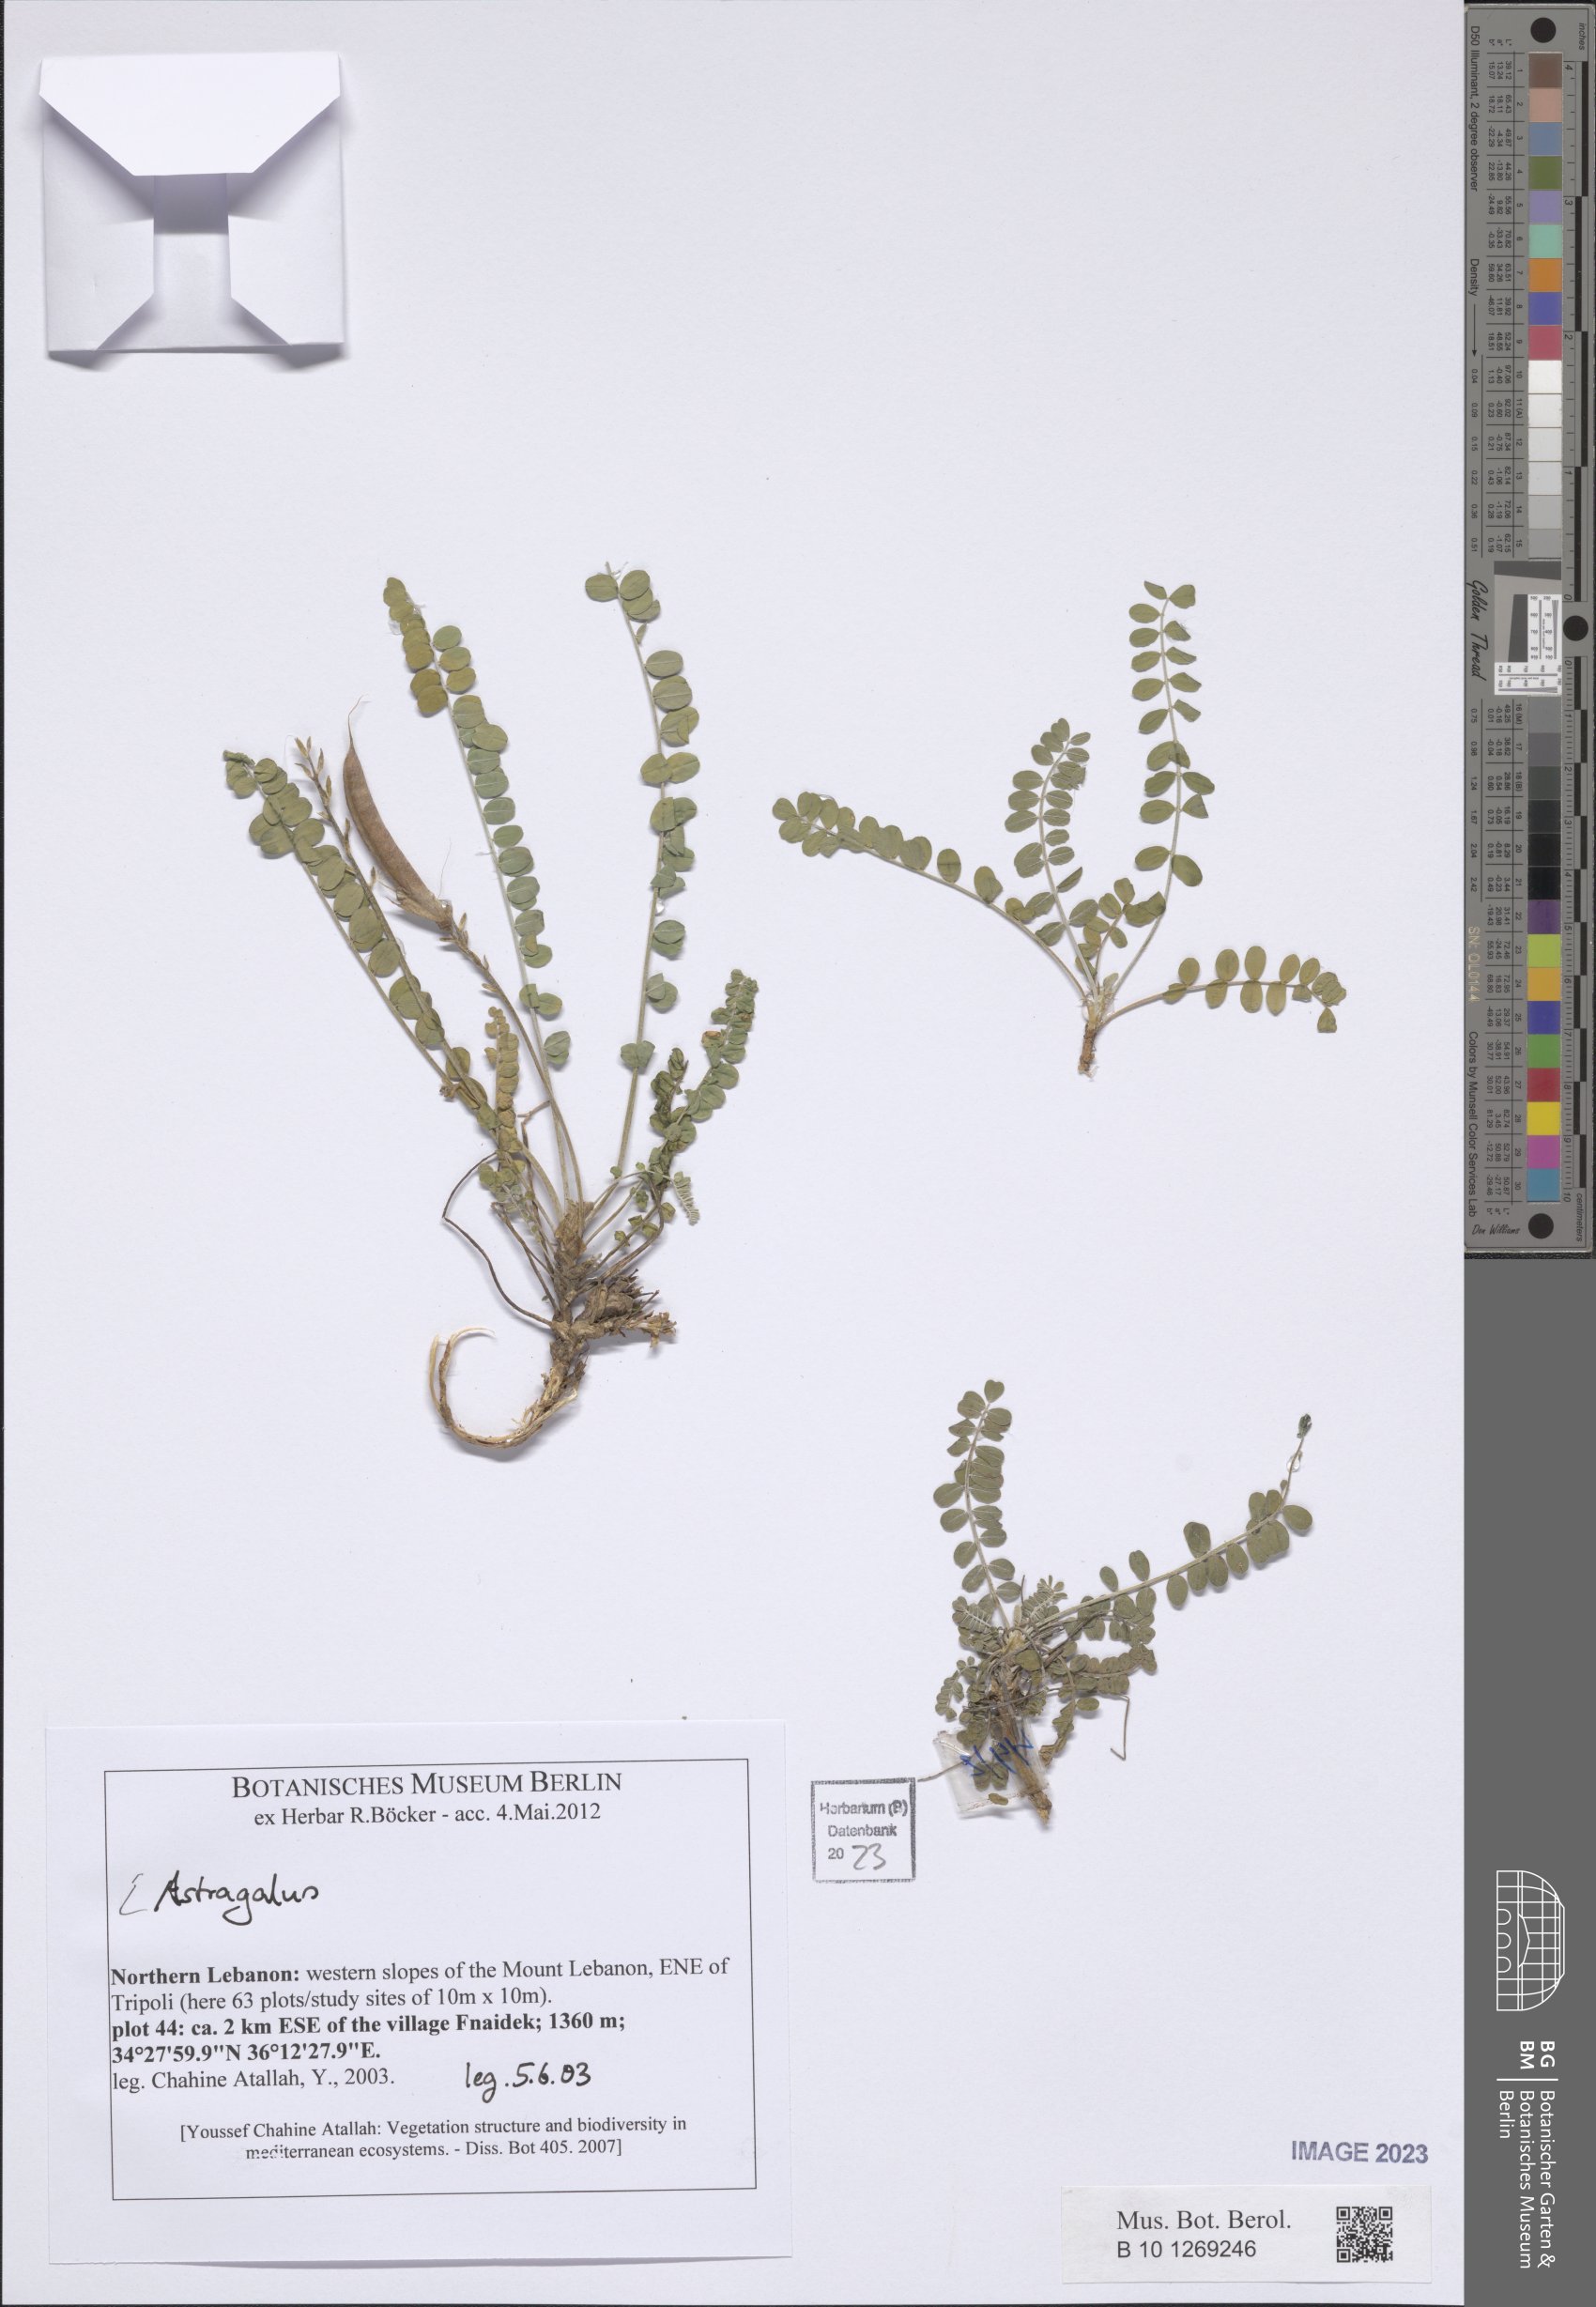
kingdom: Plantae
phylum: Tracheophyta
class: Magnoliopsida
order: Fabales
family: Fabaceae
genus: Astragalus
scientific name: Astragalus
